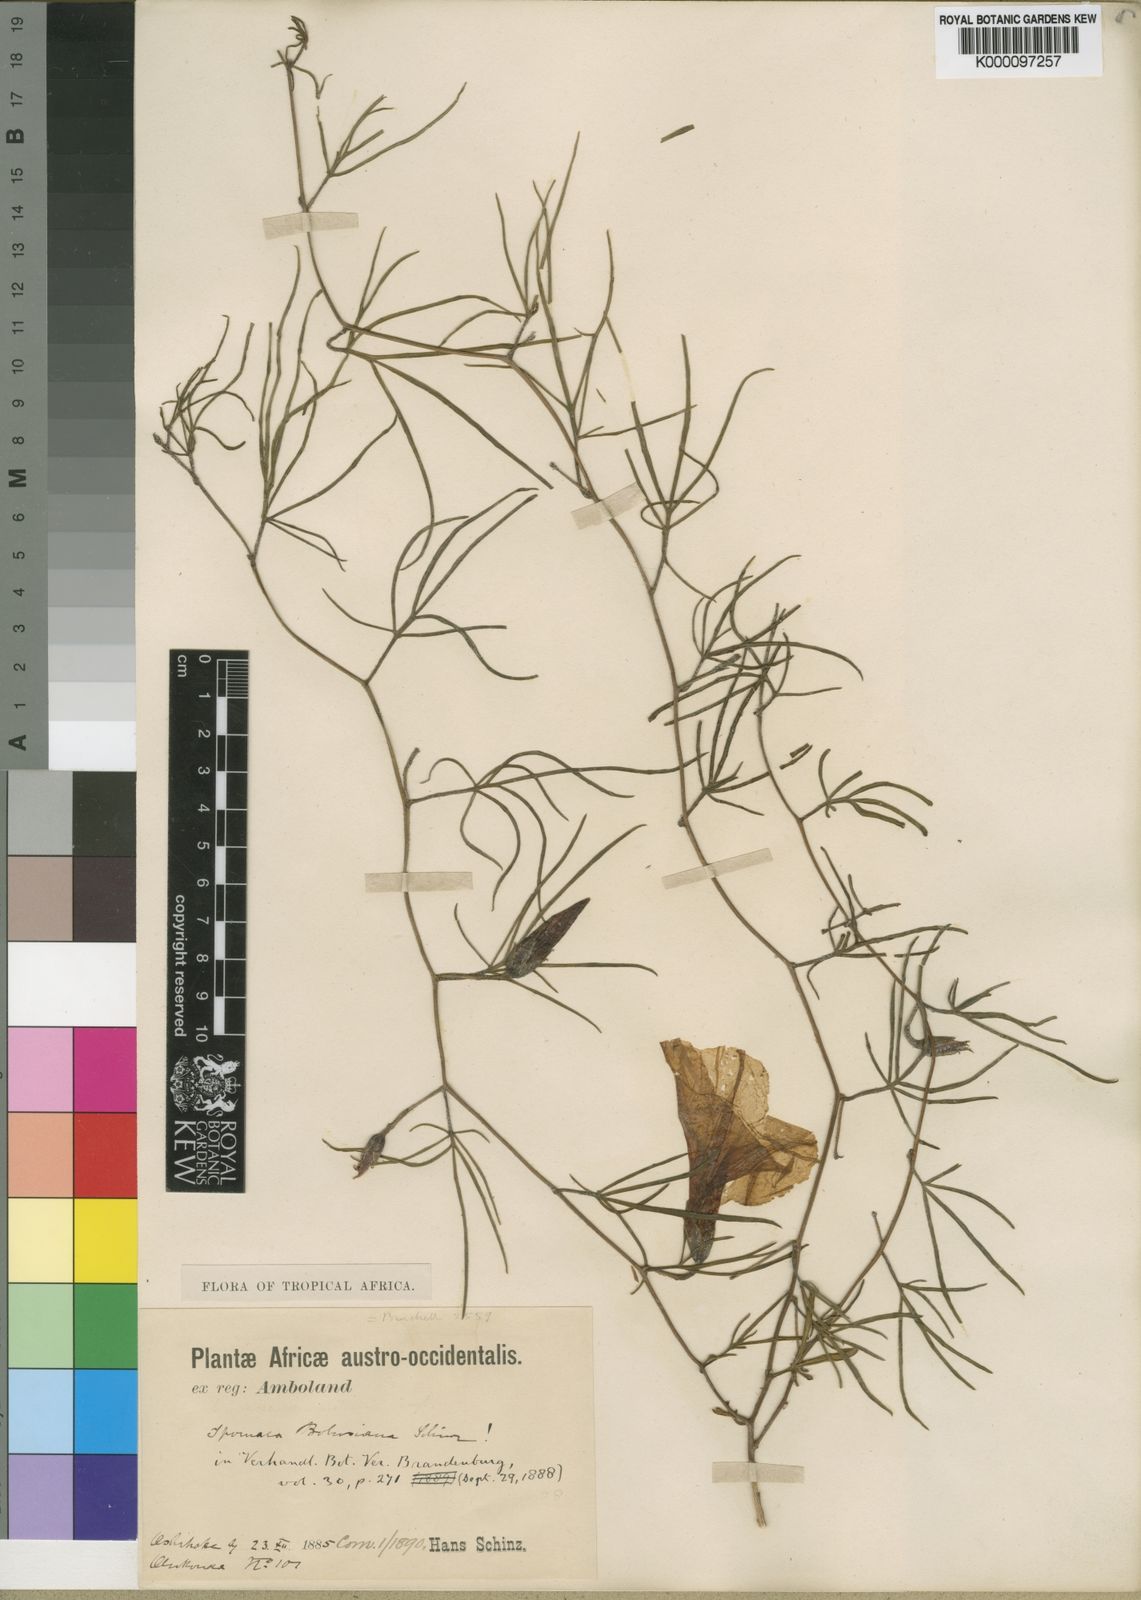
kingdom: Plantae
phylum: Tracheophyta
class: Magnoliopsida
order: Solanales
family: Convolvulaceae
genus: Ipomoea
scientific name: Ipomoea bolusiana
